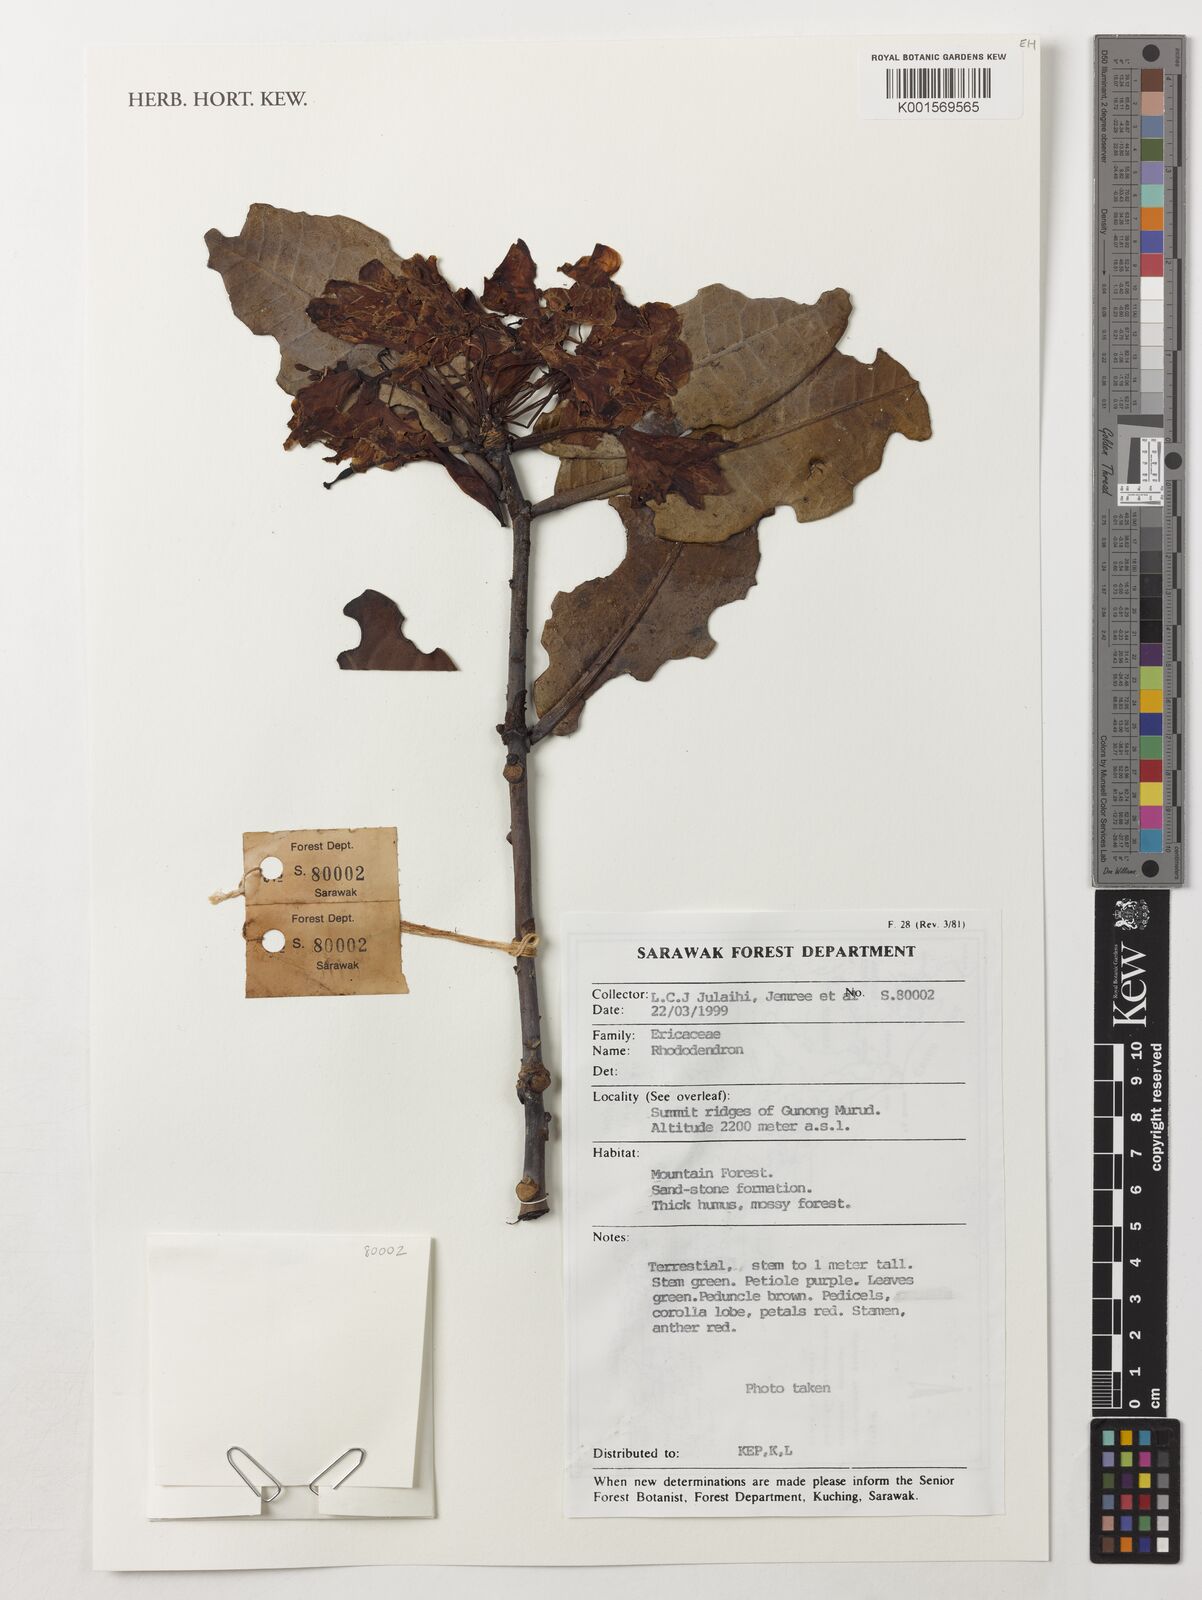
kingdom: Plantae
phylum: Tracheophyta
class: Magnoliopsida
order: Ericales
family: Ericaceae
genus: Rhododendron
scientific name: Rhododendron
